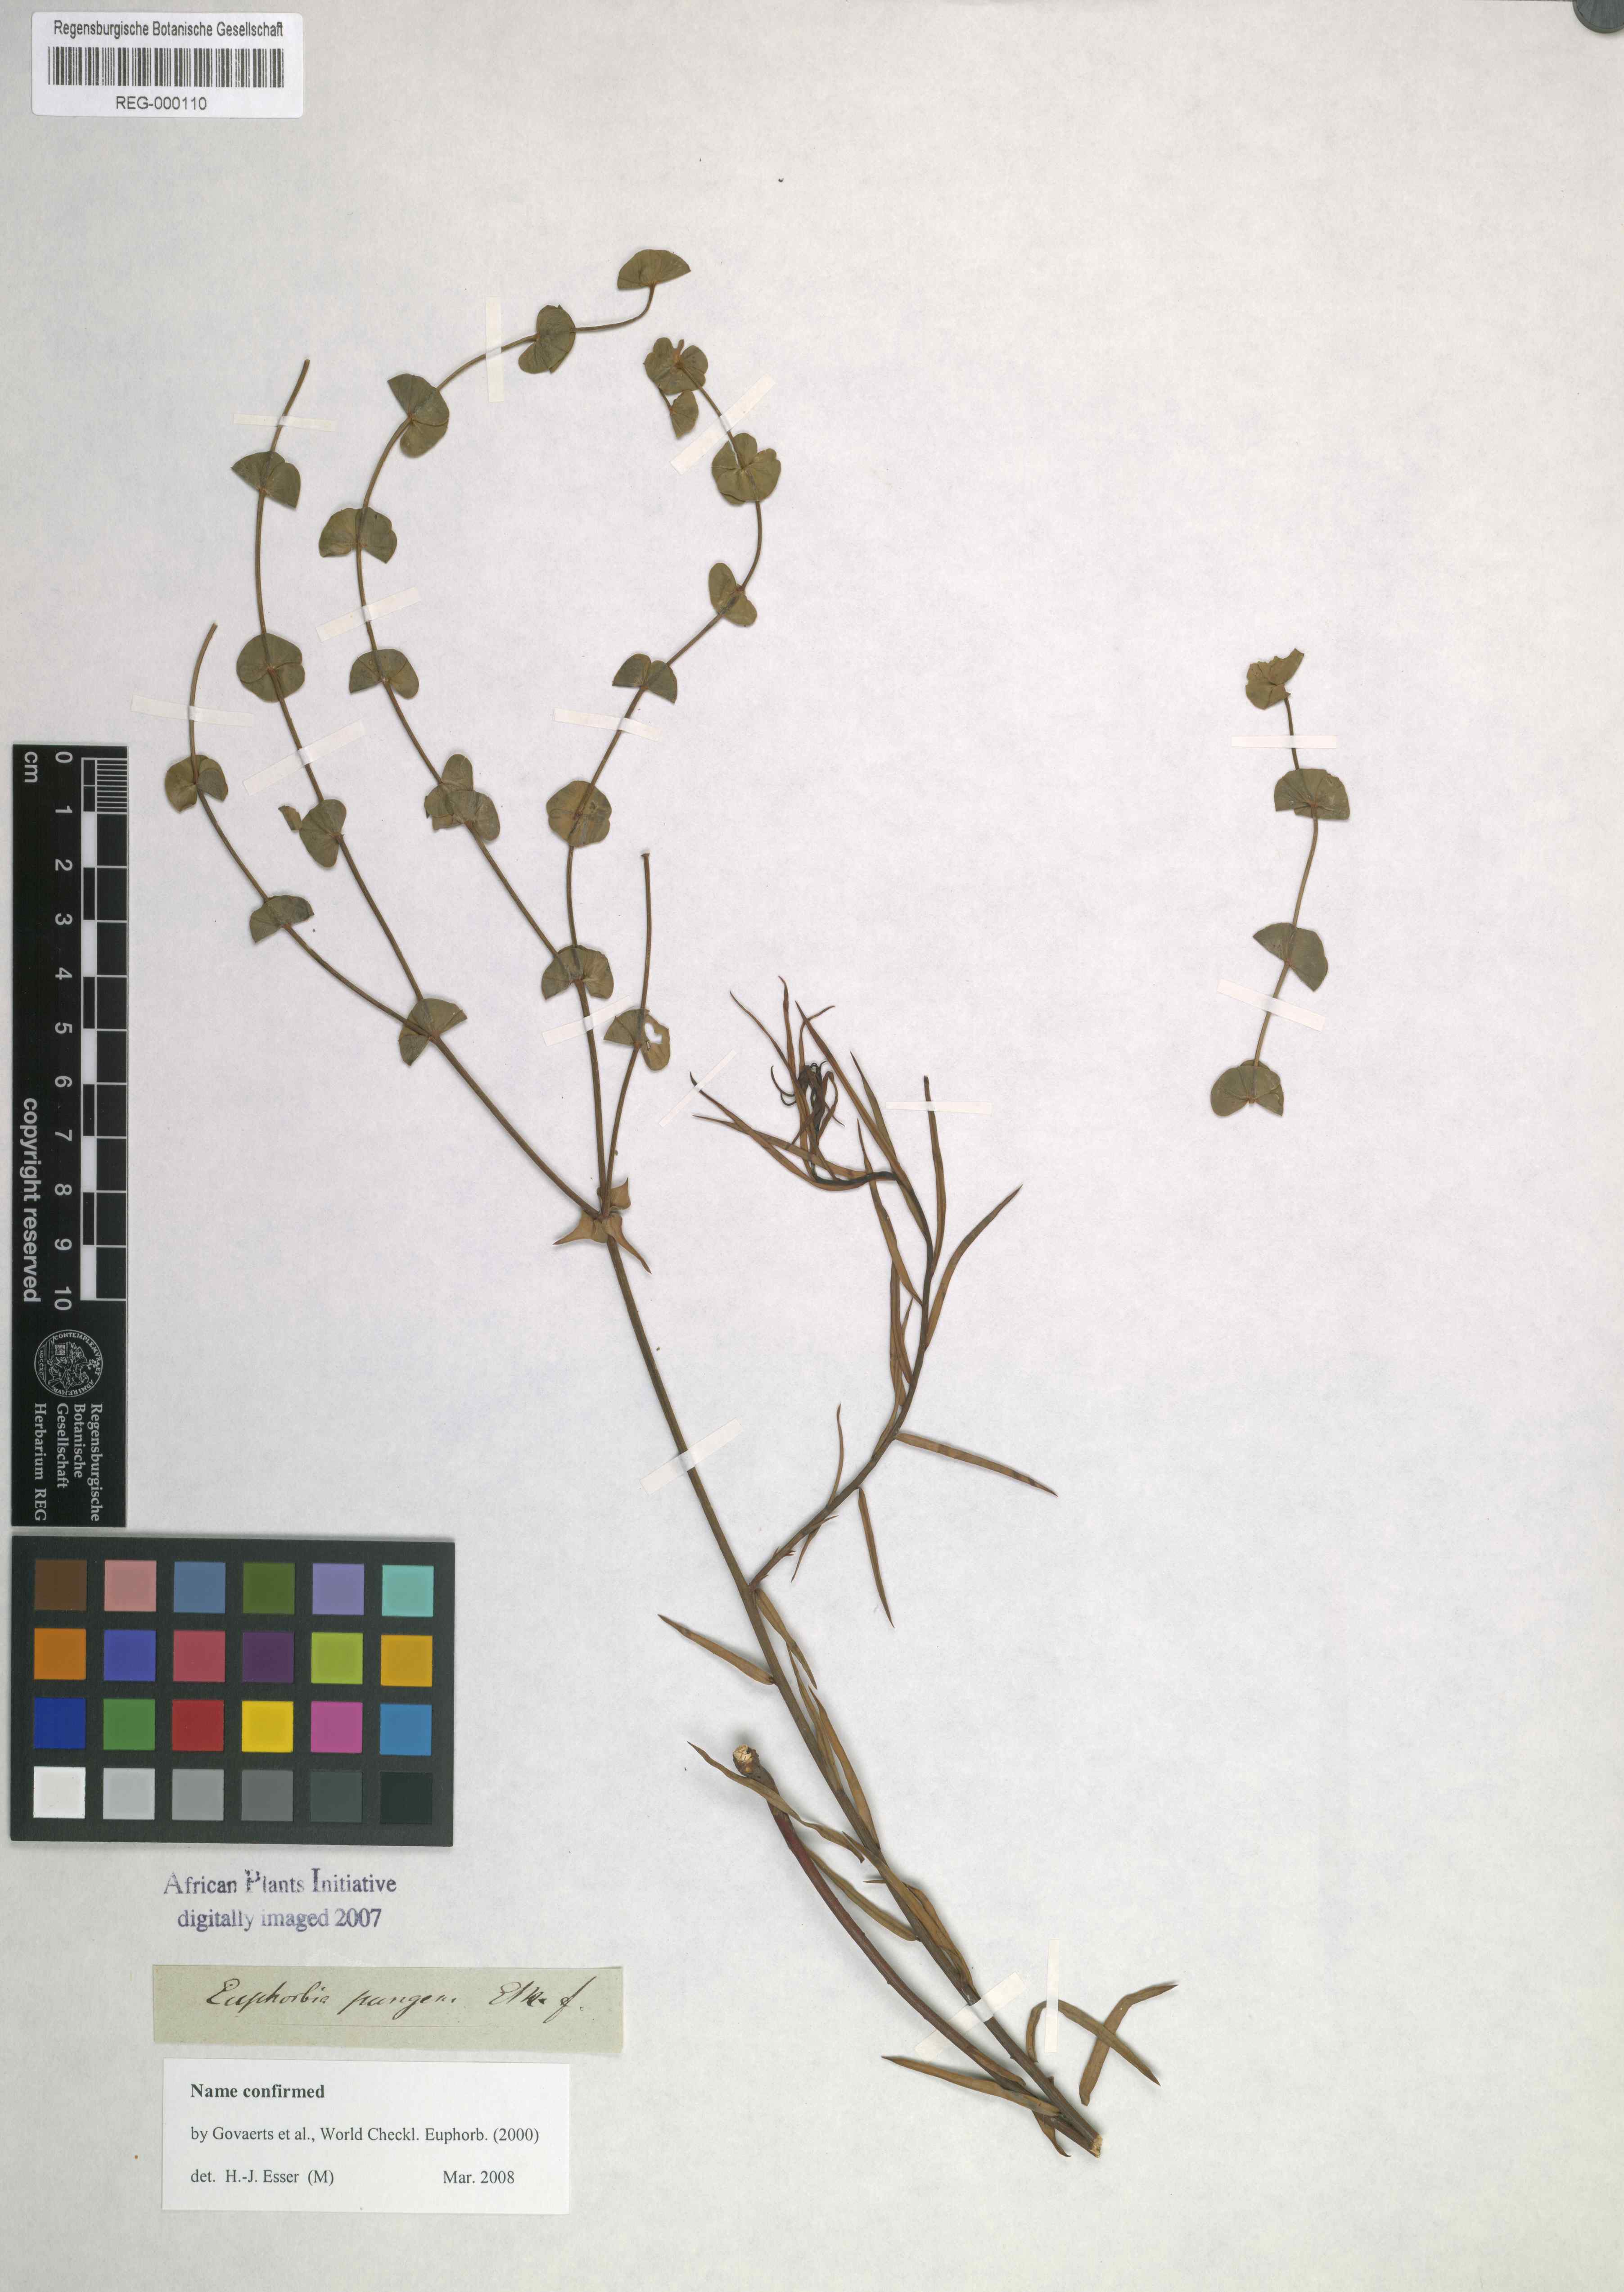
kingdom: Plantae
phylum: Tracheophyta
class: Magnoliopsida
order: Malpighiales
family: Euphorbiaceae
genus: Euphorbia
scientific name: Euphorbia rigida
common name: Upright myrtle spurge
